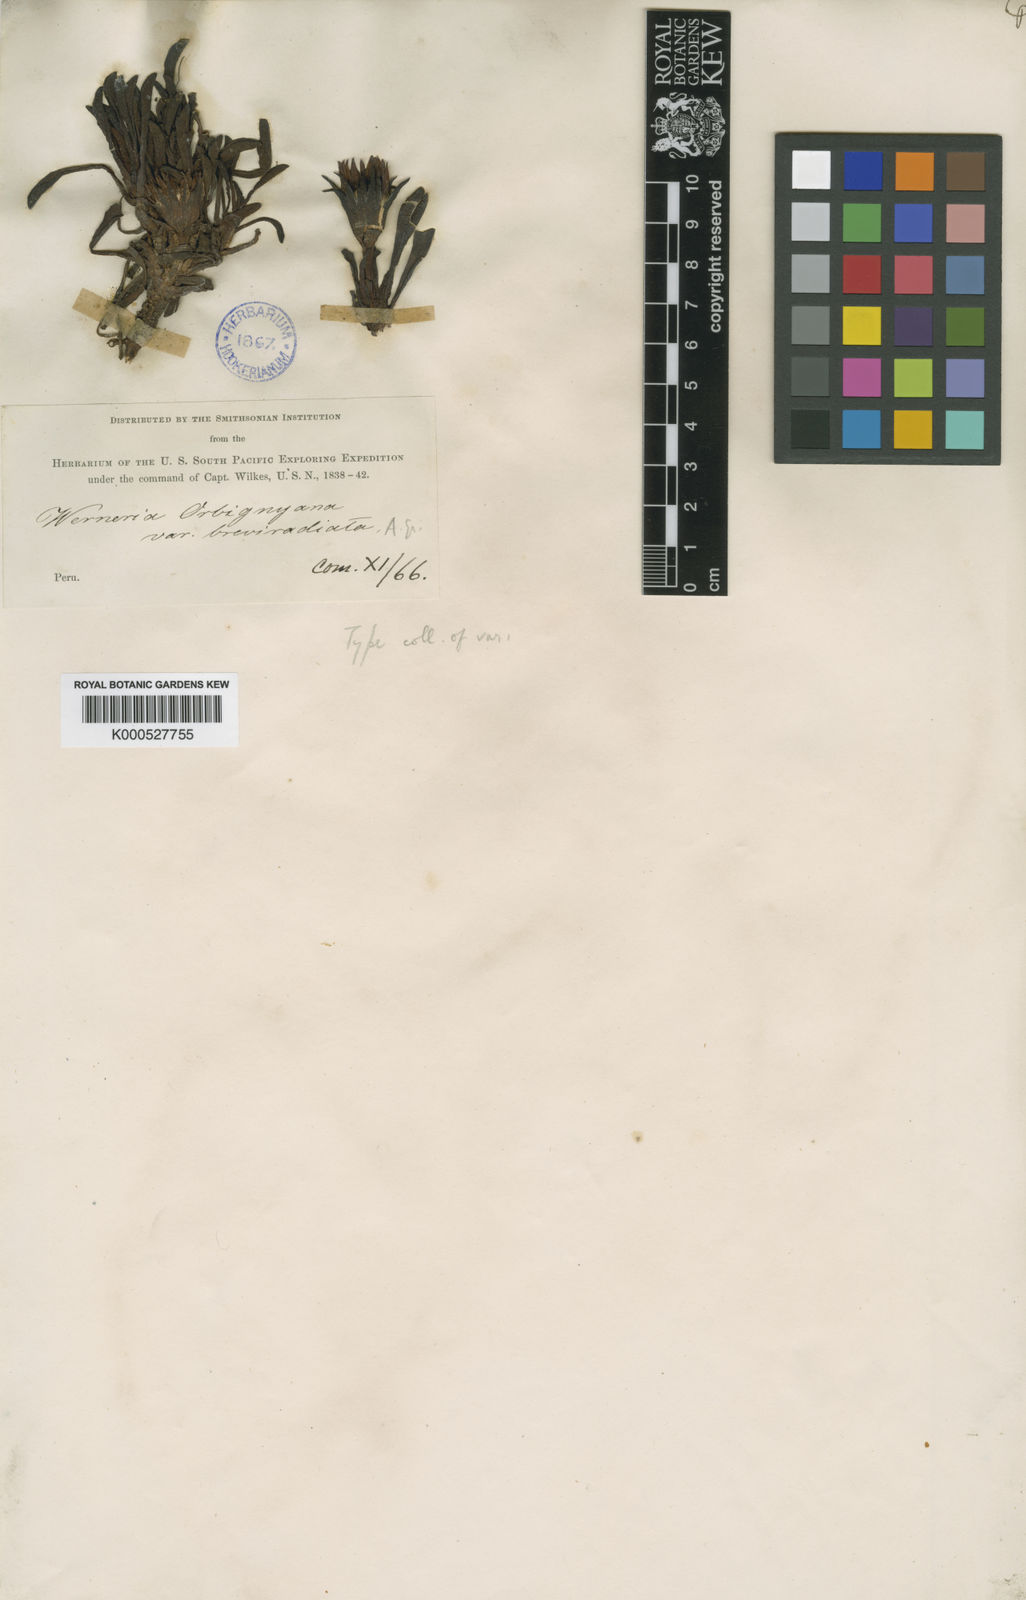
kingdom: Plantae
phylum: Tracheophyta
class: Magnoliopsida
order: Asterales
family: Asteraceae
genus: Rockhausenia
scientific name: Rockhausenia orbignyana
